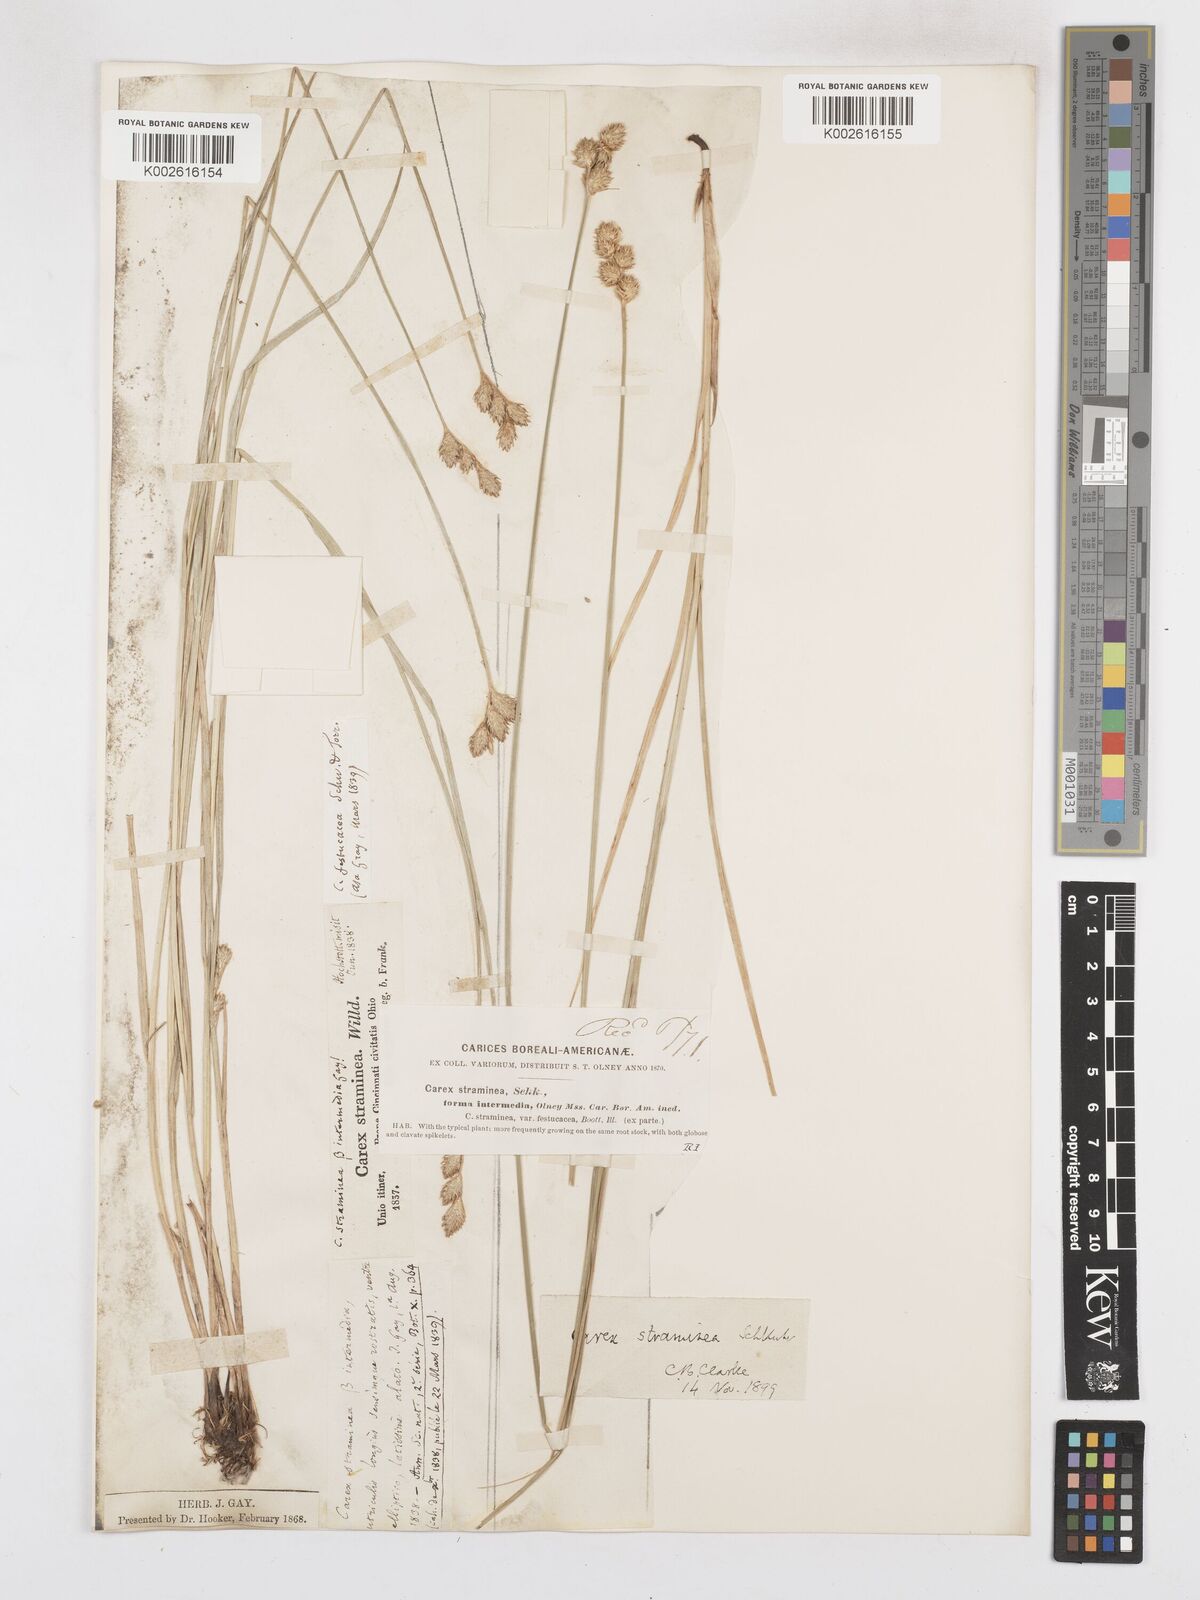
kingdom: Plantae
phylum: Tracheophyta
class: Liliopsida
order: Poales
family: Cyperaceae
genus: Carex
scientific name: Carex brevior
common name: Brevior sedge
